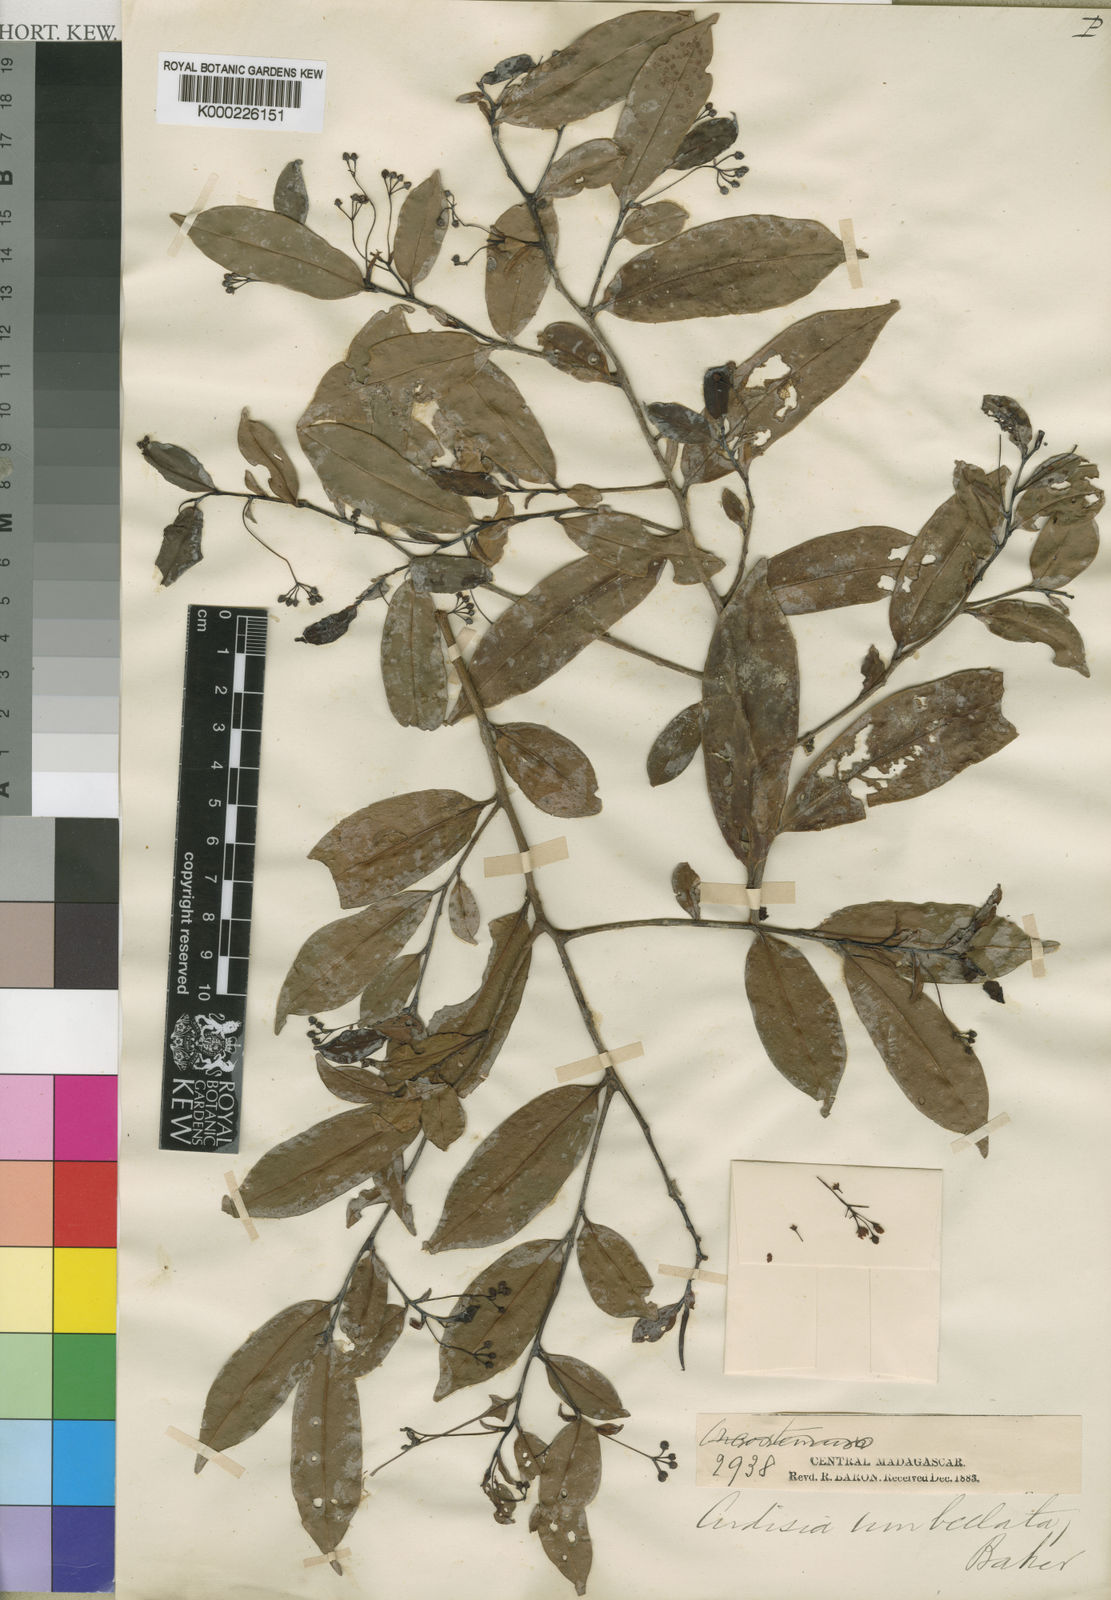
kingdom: Plantae
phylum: Tracheophyta
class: Magnoliopsida
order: Ericales
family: Primulaceae
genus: Oncostemum
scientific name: Oncostemum umbellatum
